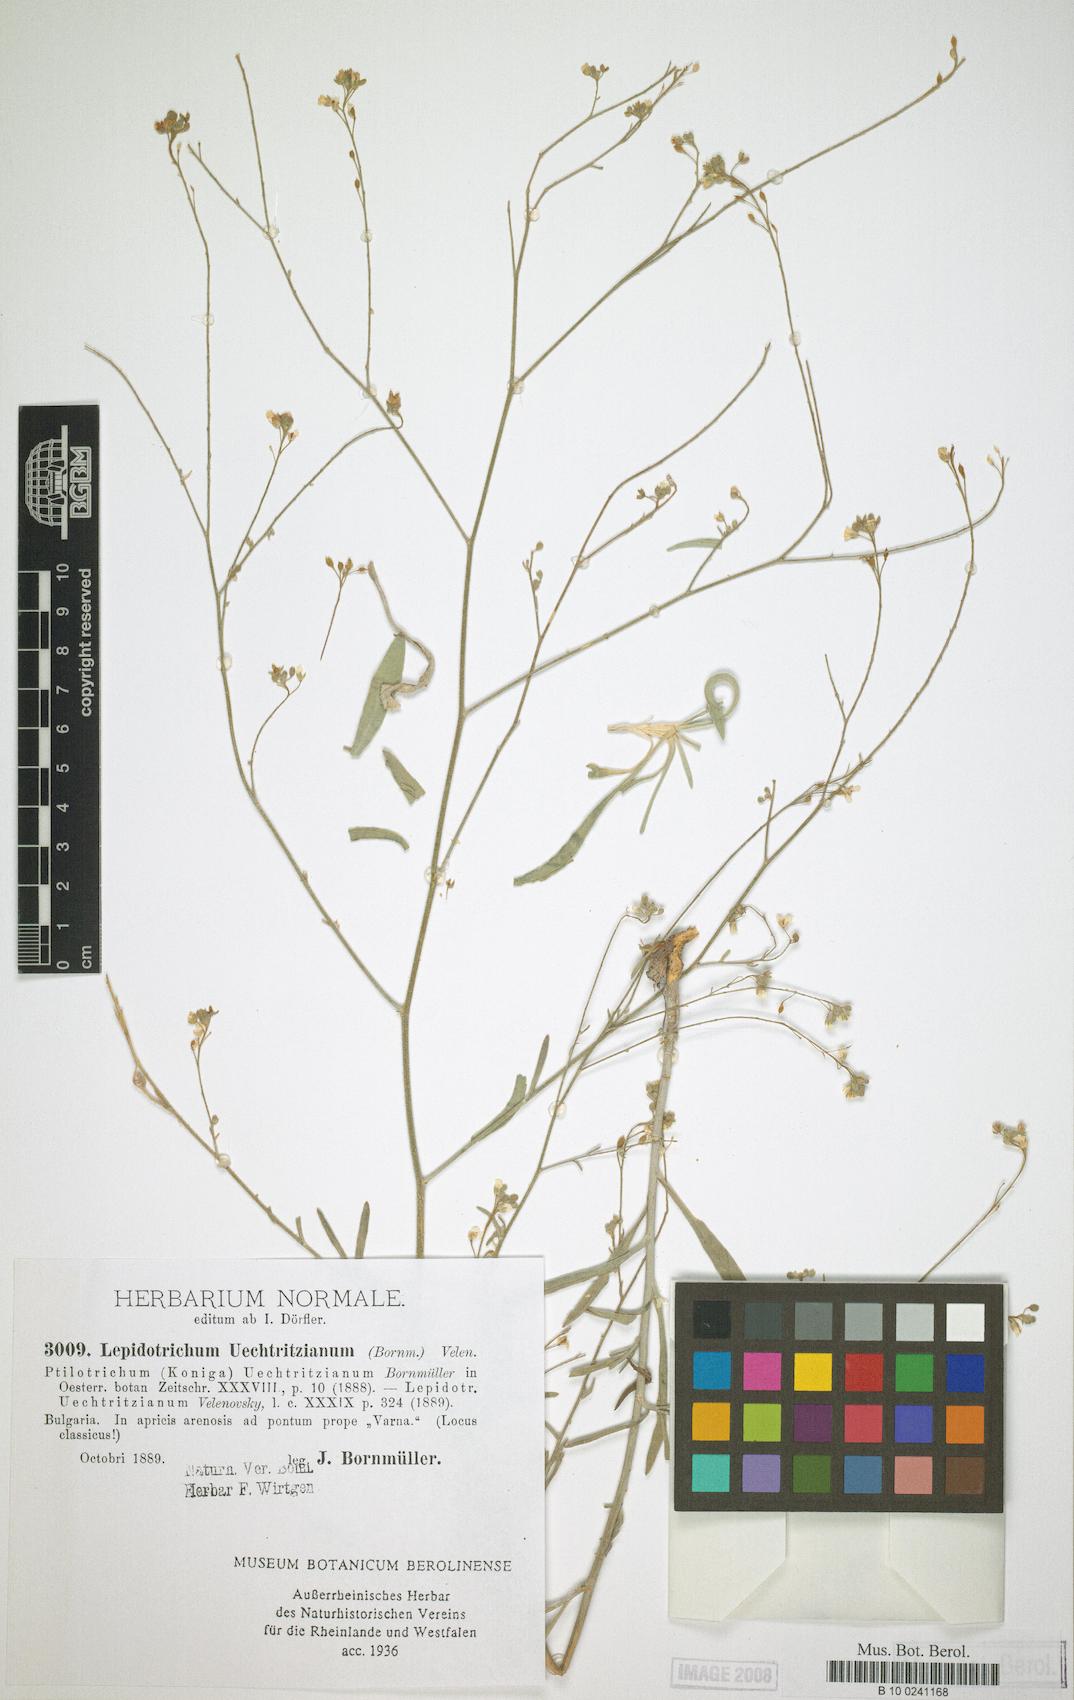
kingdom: Plantae
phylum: Tracheophyta
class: Magnoliopsida
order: Brassicales
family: Brassicaceae
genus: Lepidotrichum
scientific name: Lepidotrichum uechtritzianum
